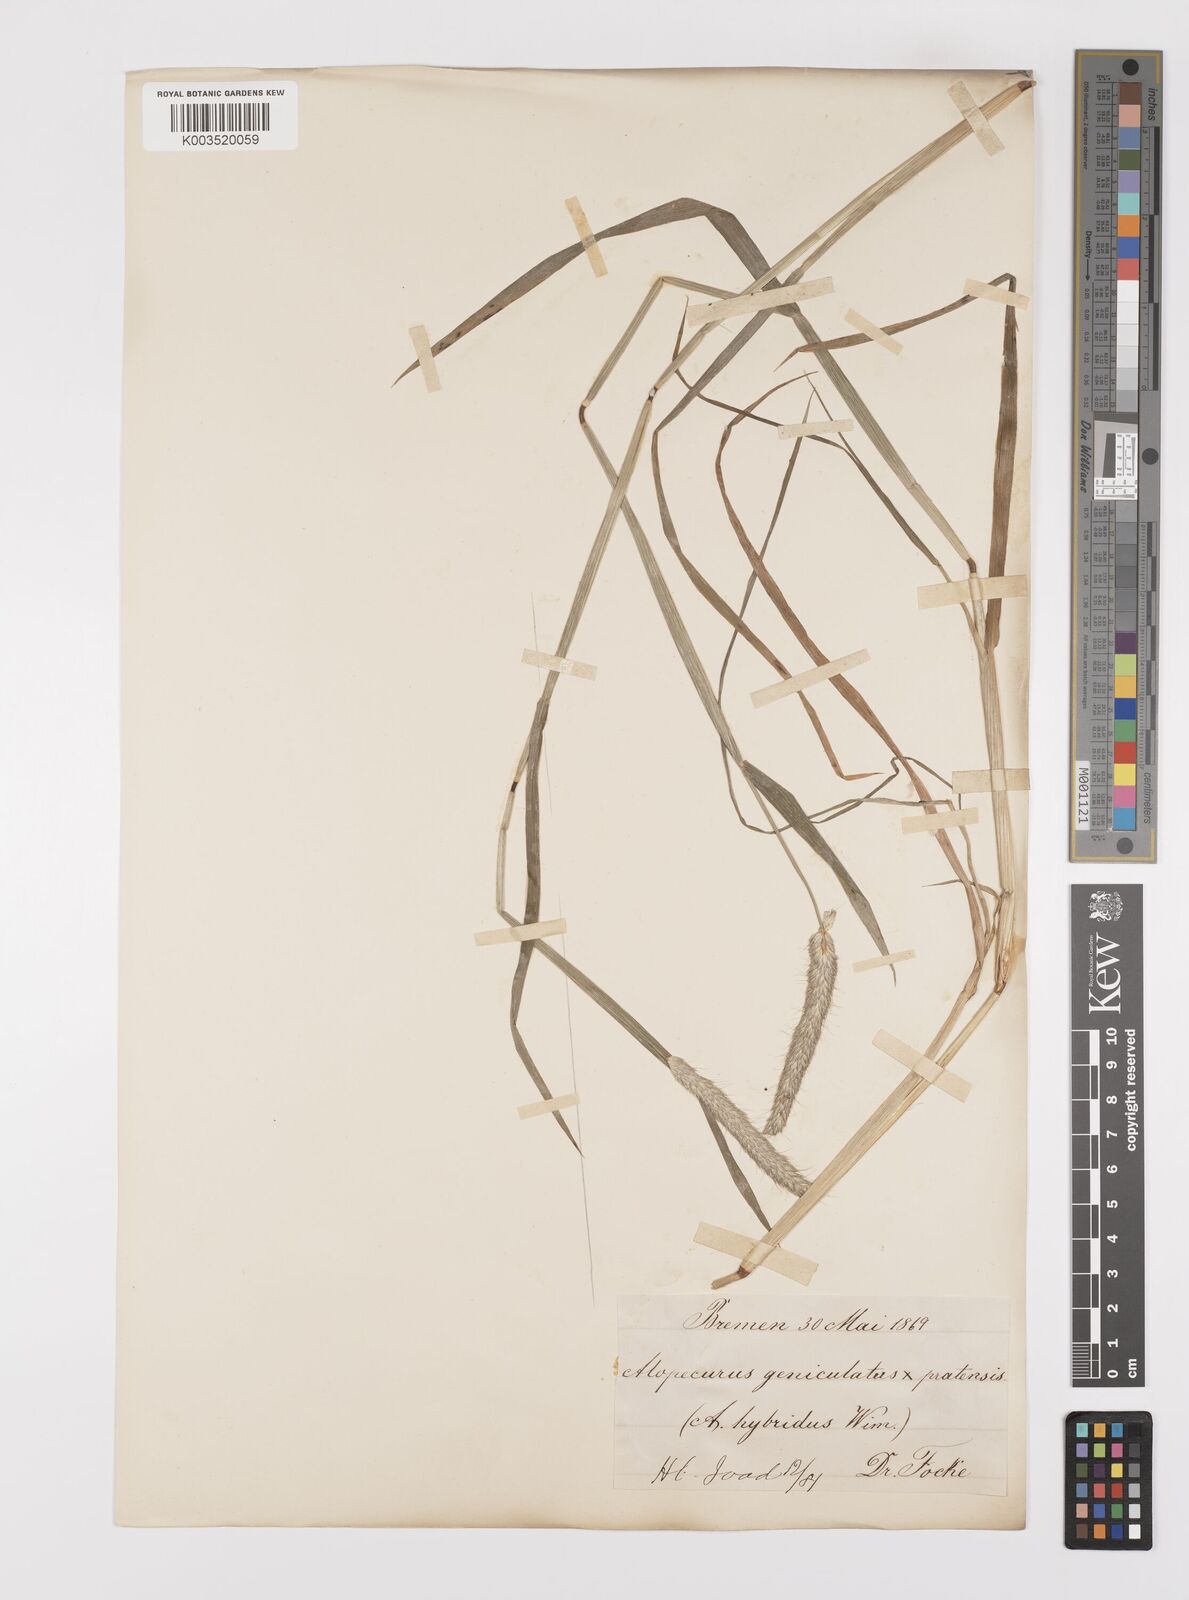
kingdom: Plantae
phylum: Tracheophyta
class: Liliopsida
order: Poales
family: Poaceae
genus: Alopecurus
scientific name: Alopecurus brachystylus
